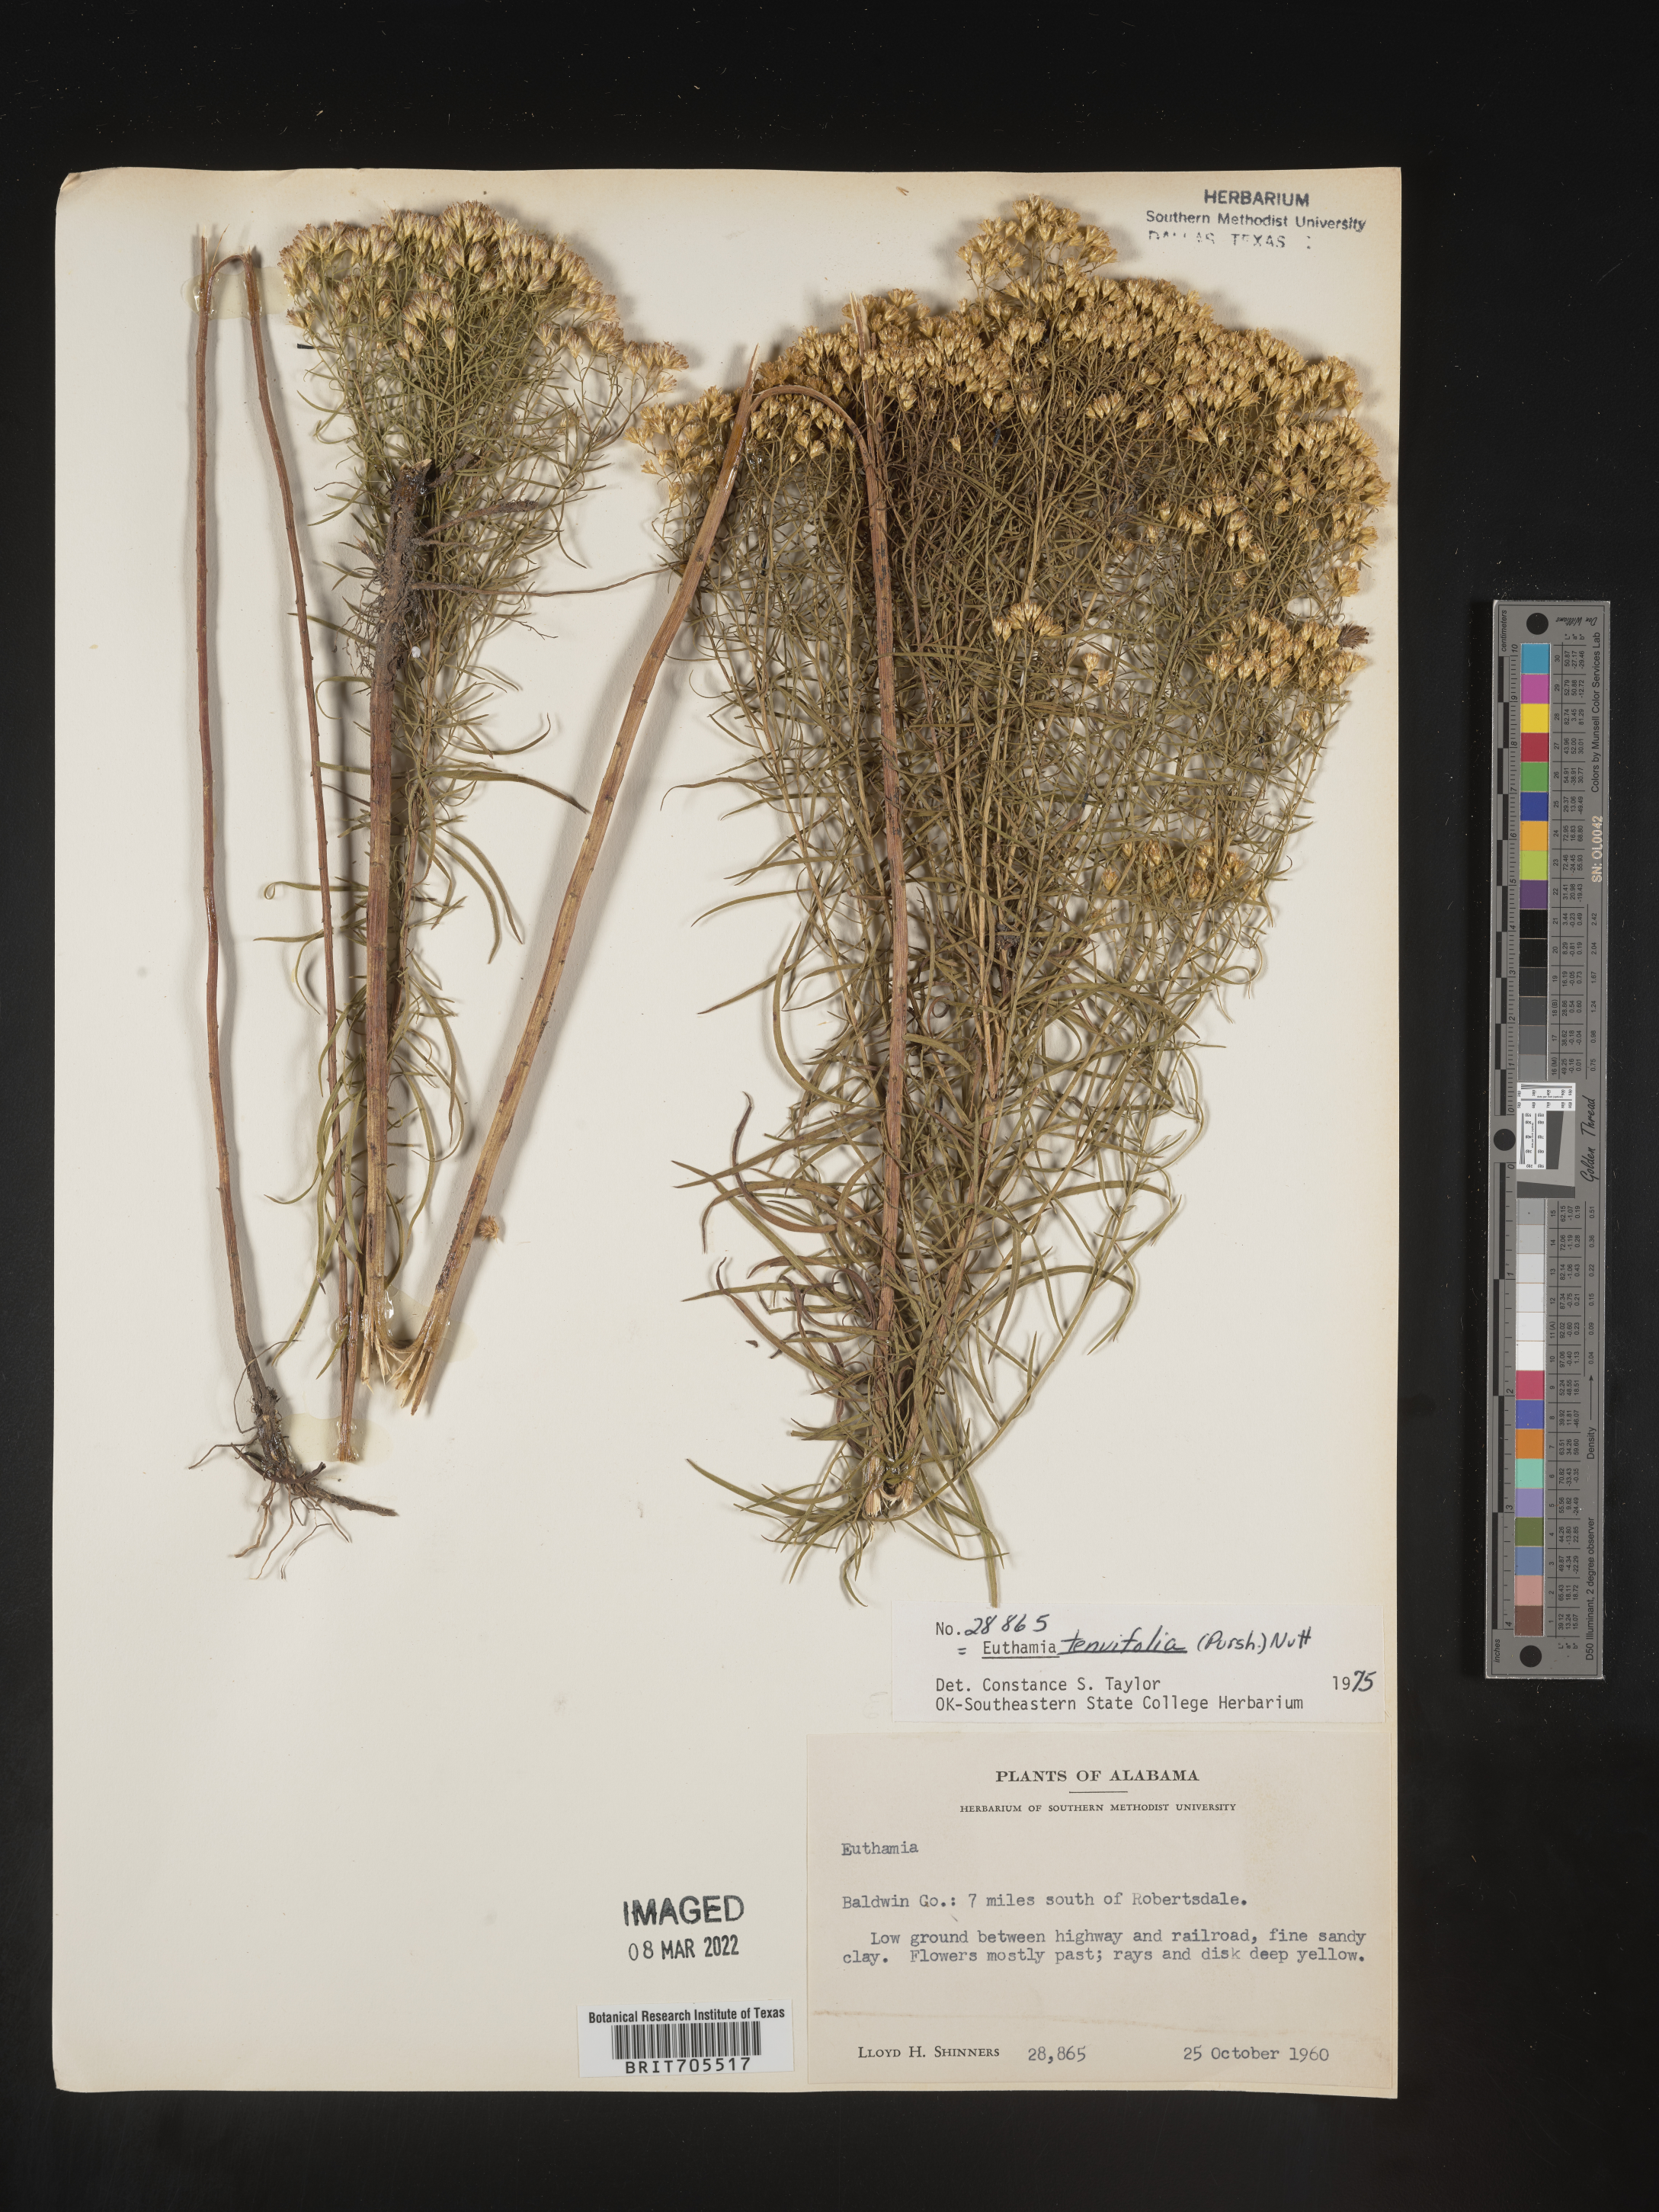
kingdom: Plantae
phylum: Tracheophyta
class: Magnoliopsida
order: Asterales
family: Asteraceae
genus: Euthamia
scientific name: Euthamia caroliniana
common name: Coastal plain goldentop
